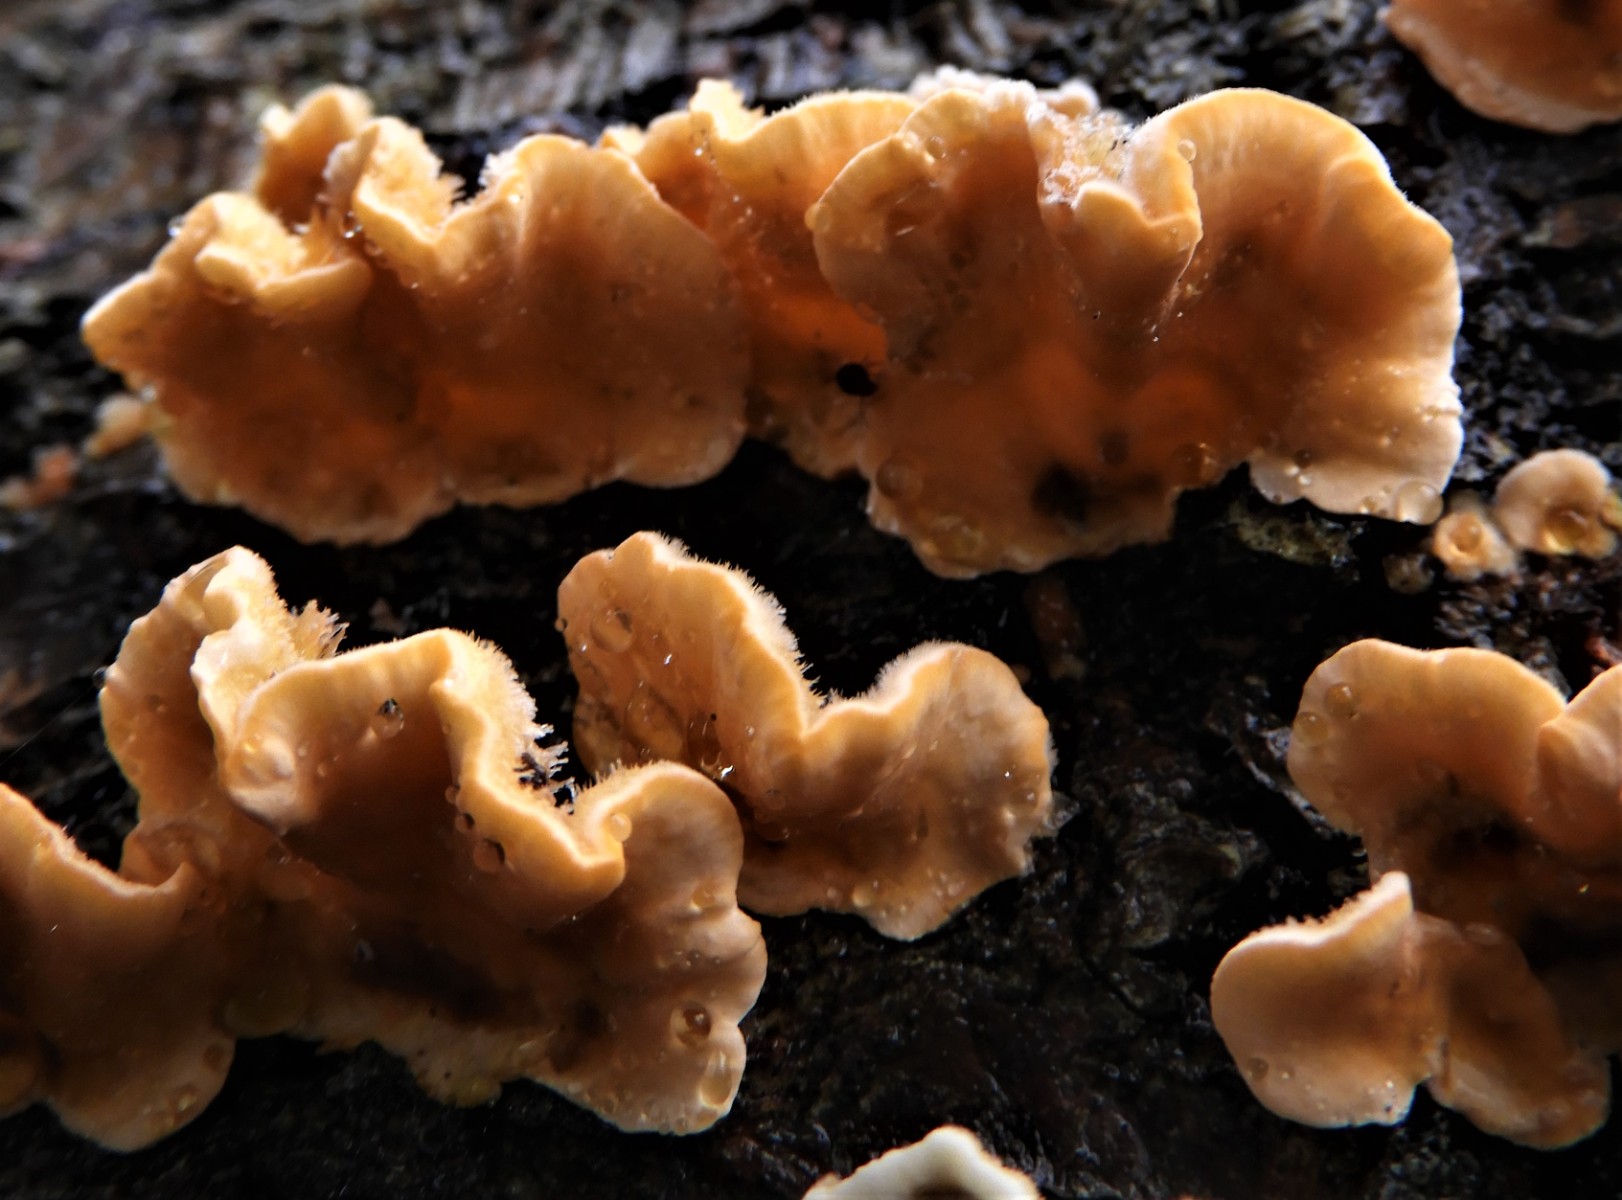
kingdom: Fungi
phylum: Basidiomycota
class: Agaricomycetes
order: Russulales
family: Stereaceae
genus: Stereum
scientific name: Stereum hirsutum
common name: håret lædersvamp
